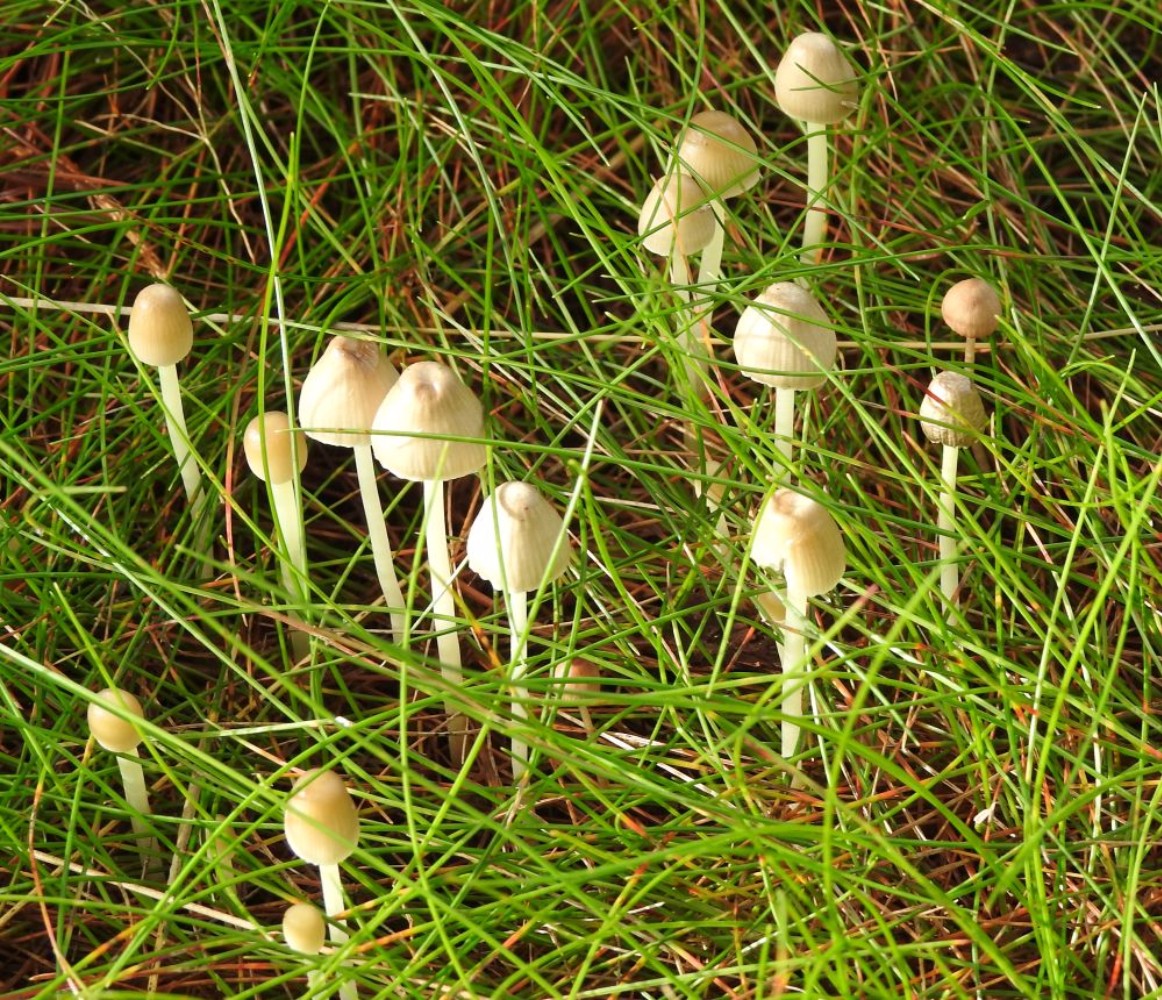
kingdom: Fungi
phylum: Basidiomycota
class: Agaricomycetes
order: Agaricales
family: Mycenaceae
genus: Mycena
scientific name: Mycena epipterygia
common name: gulstokket huesvamp
